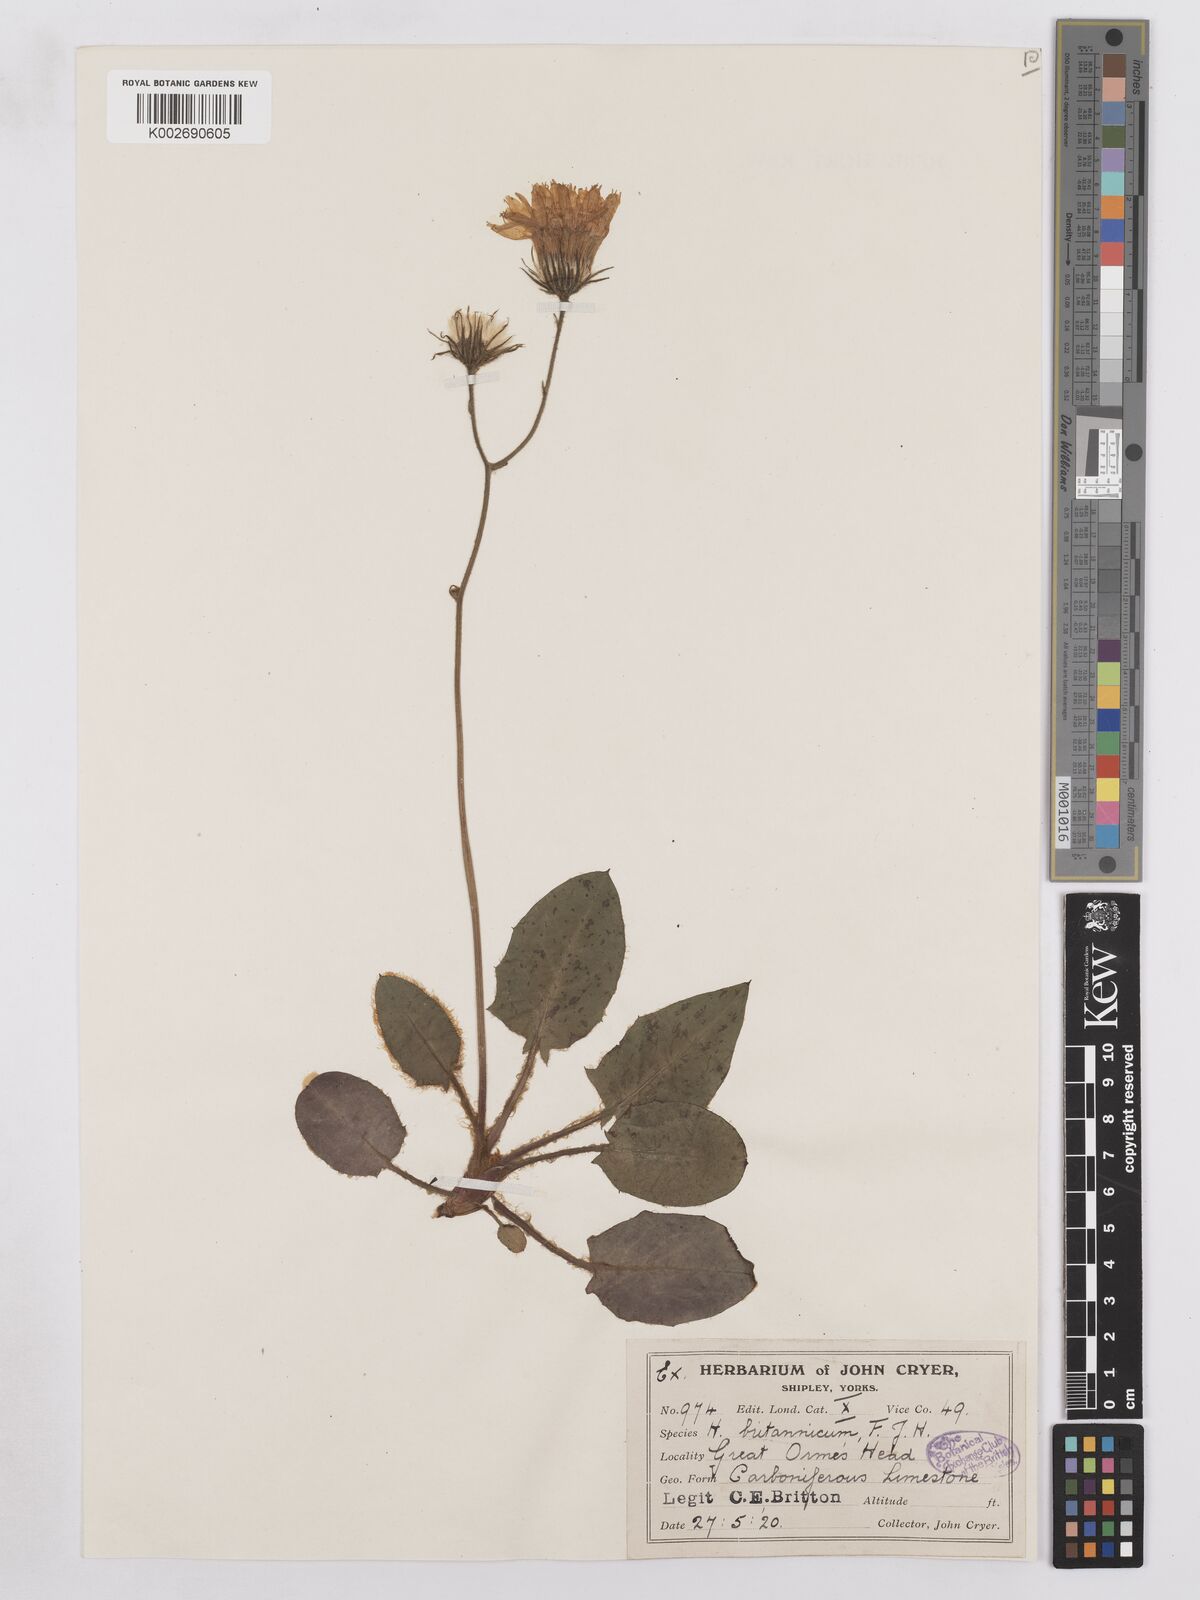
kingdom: Plantae
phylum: Tracheophyta
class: Magnoliopsida
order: Asterales
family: Asteraceae
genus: Hieracium
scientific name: Hieracium britannicum
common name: British hawkweed
